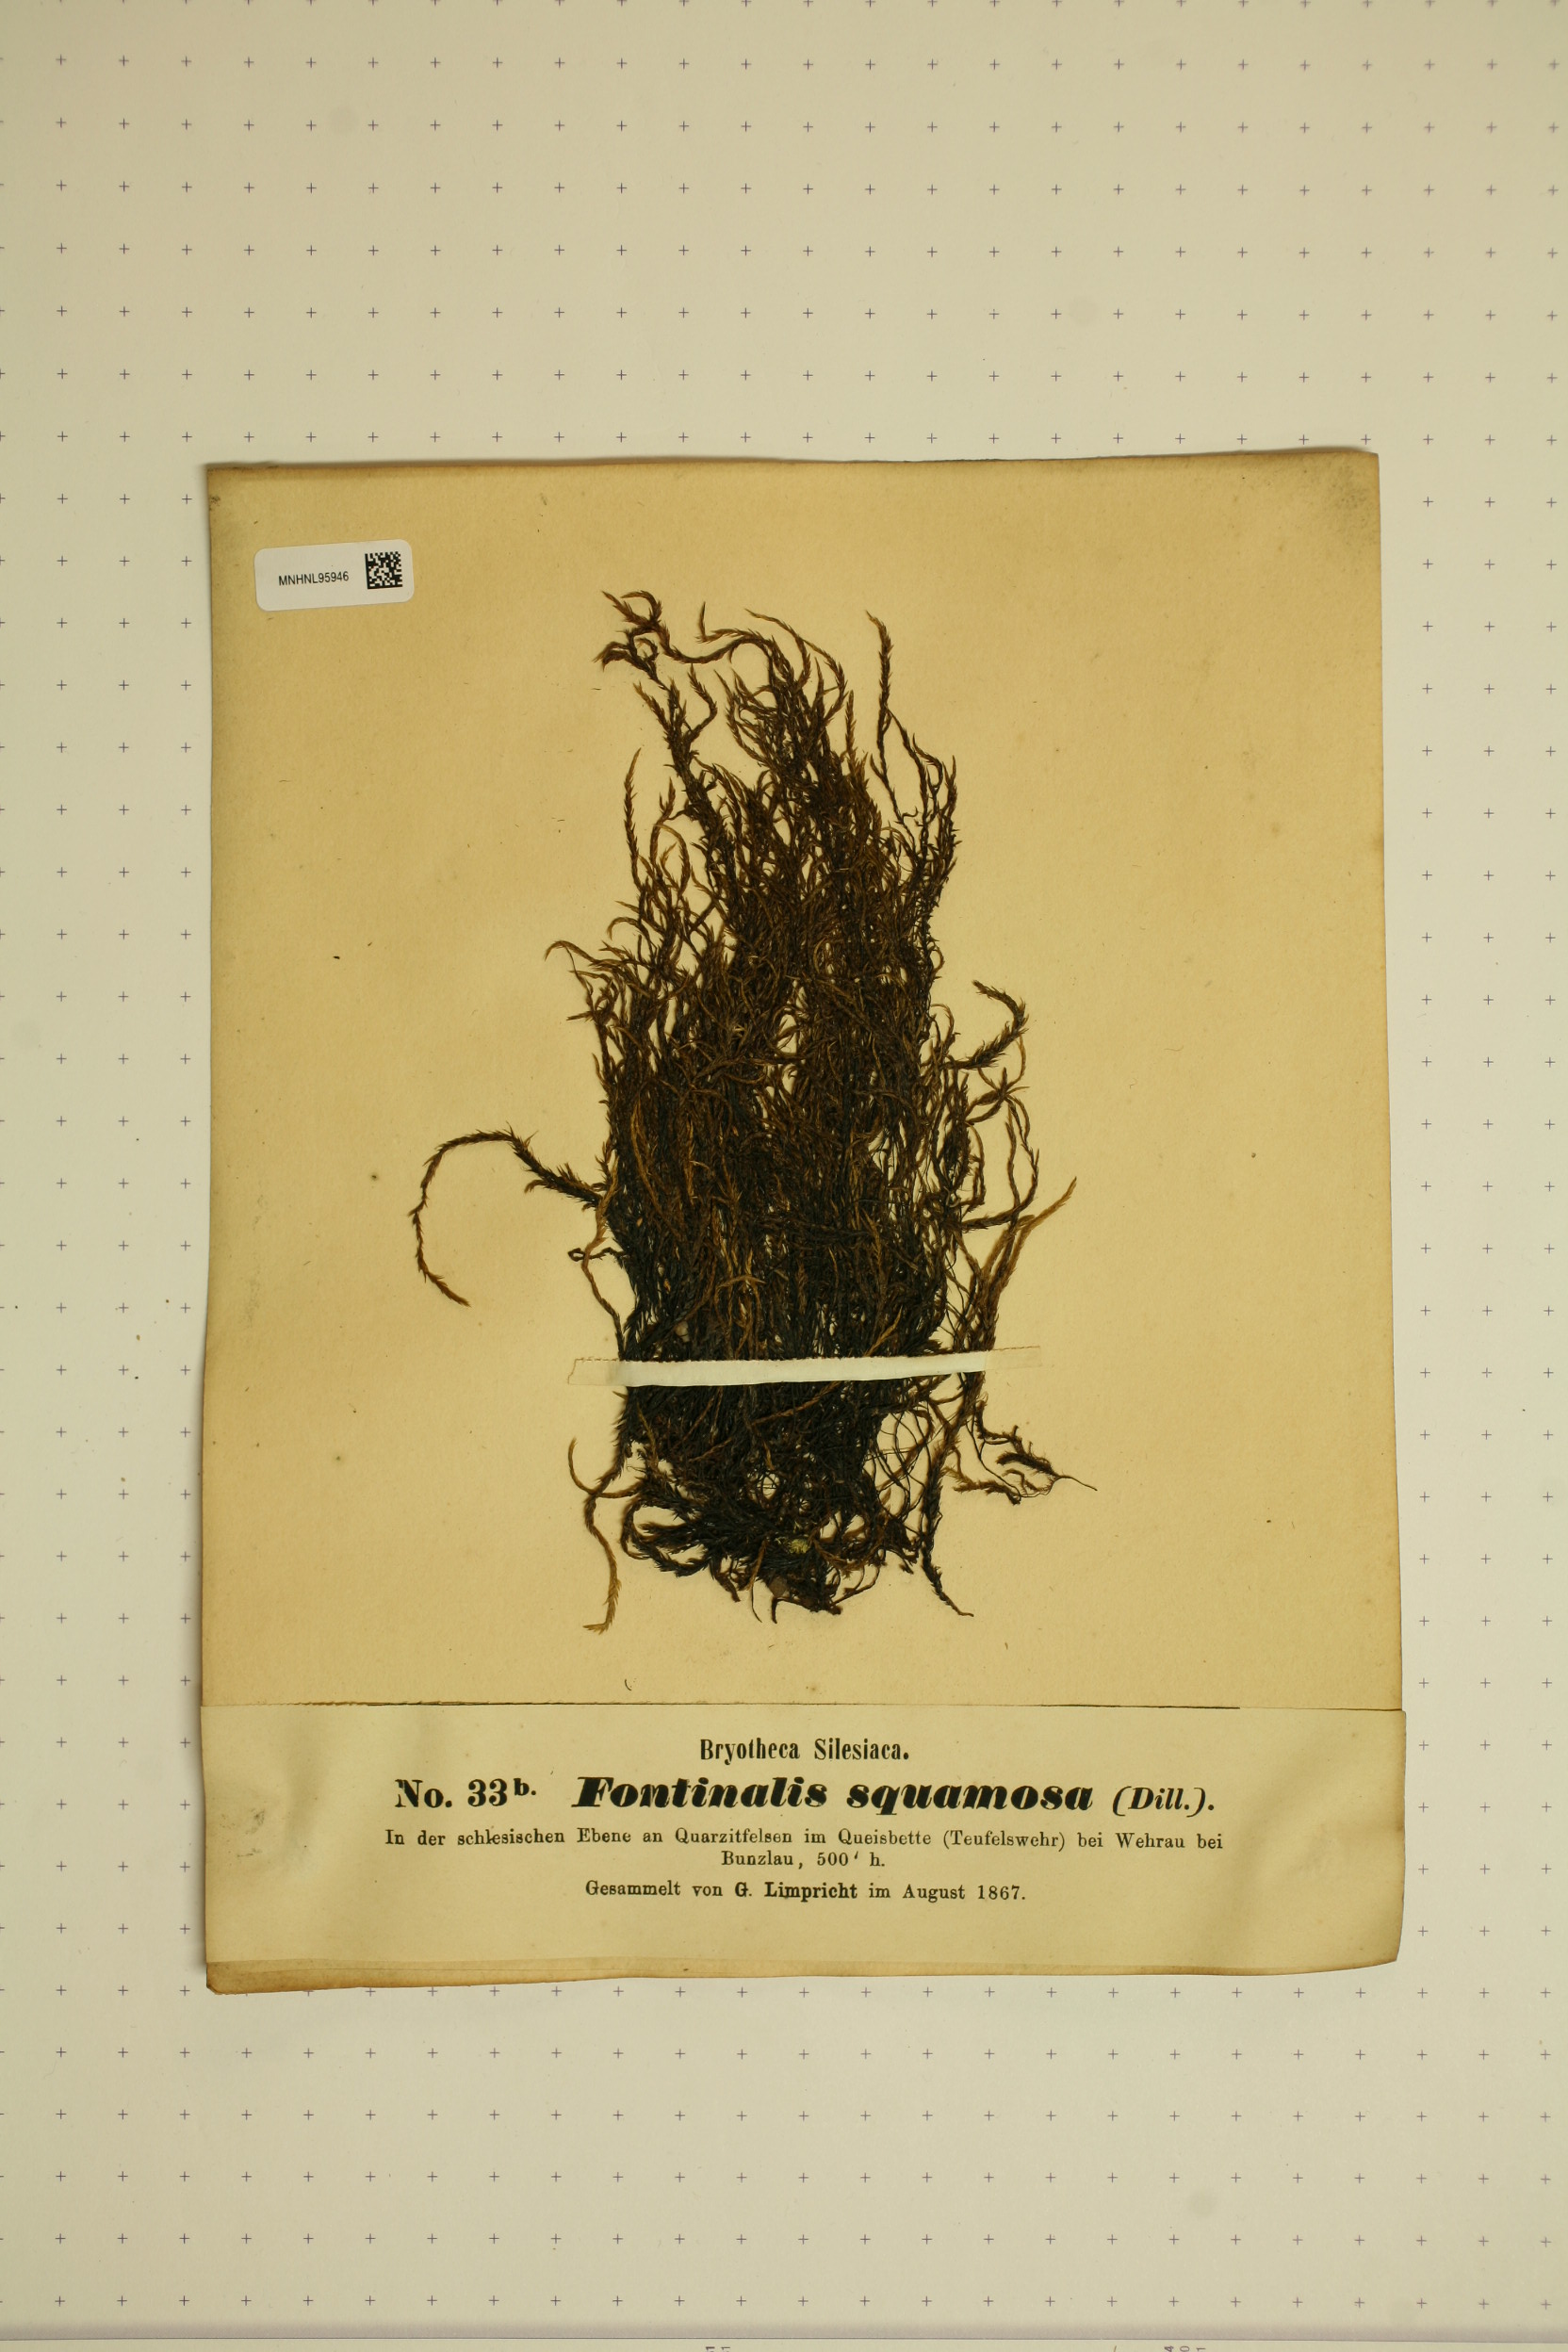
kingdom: Plantae
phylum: Bryophyta
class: Bryopsida
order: Hypnales
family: Fontinalaceae
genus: Fontinalis
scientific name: Fontinalis squamosa
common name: Alpine water-moss
